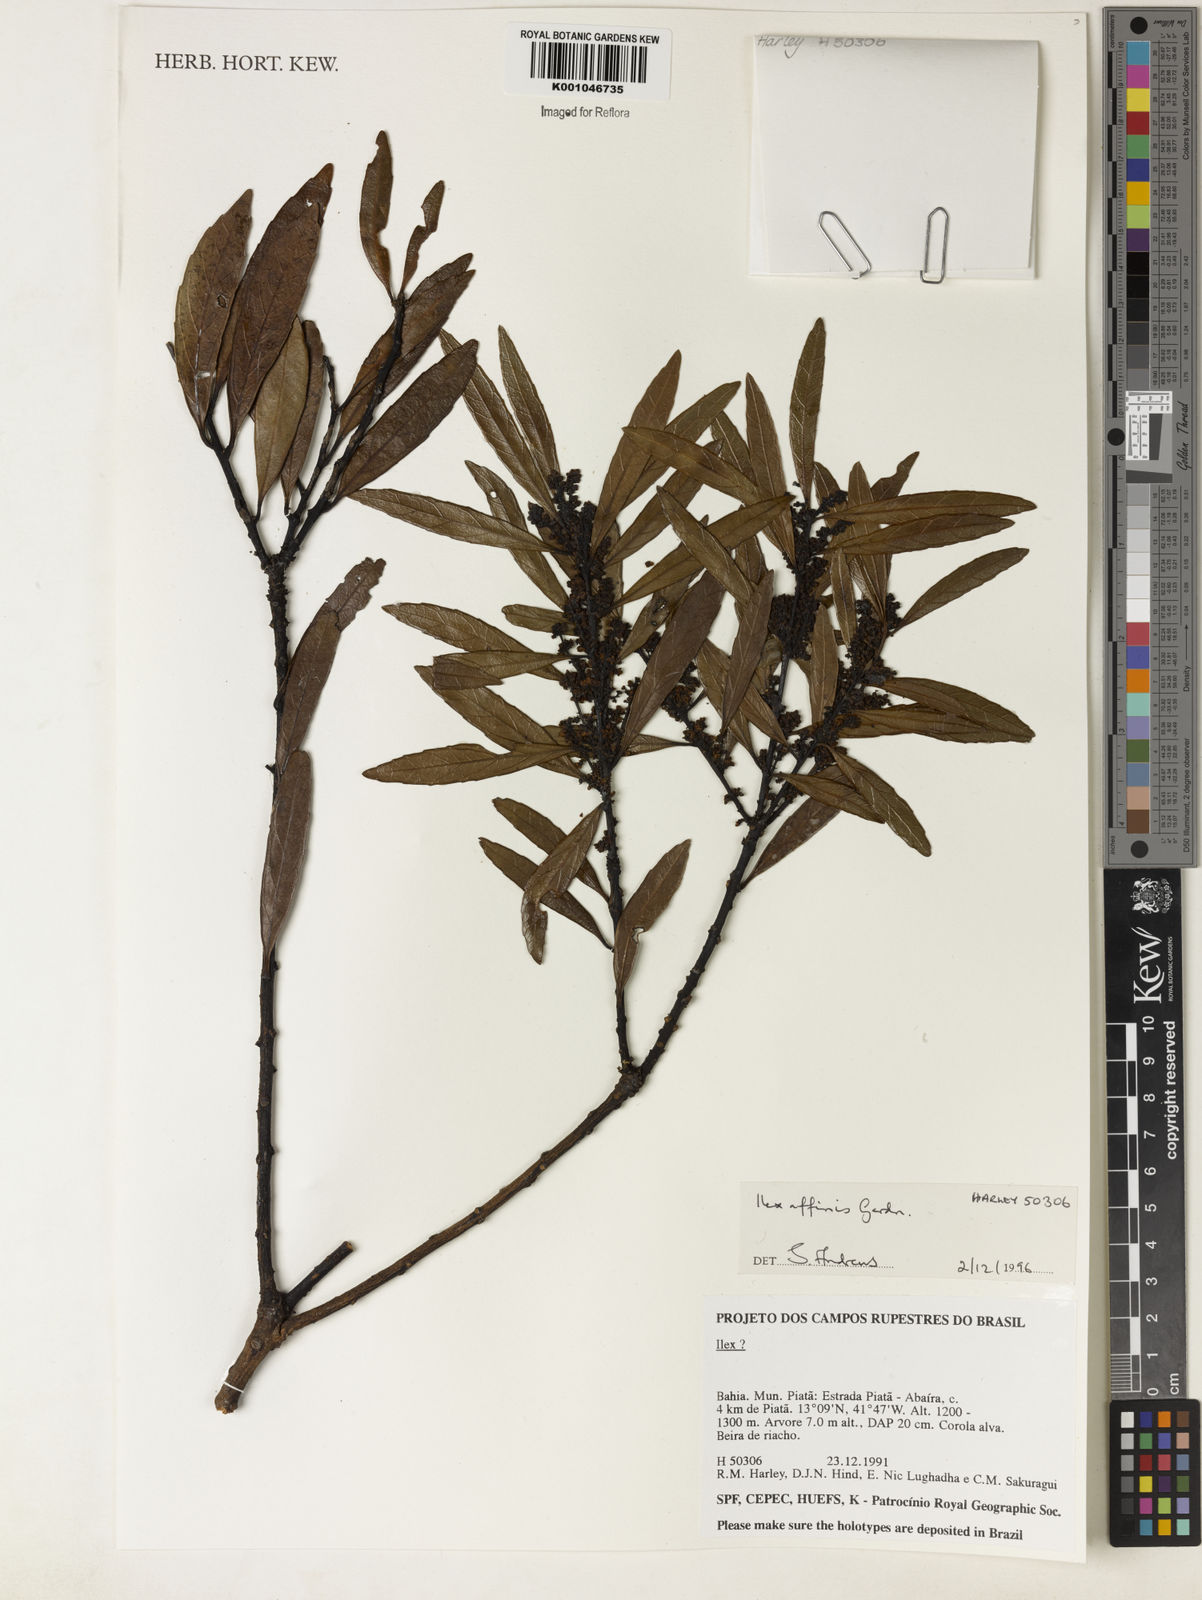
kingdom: Plantae
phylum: Tracheophyta
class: Magnoliopsida
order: Aquifoliales
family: Aquifoliaceae
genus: Ilex
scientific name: Ilex affinis
